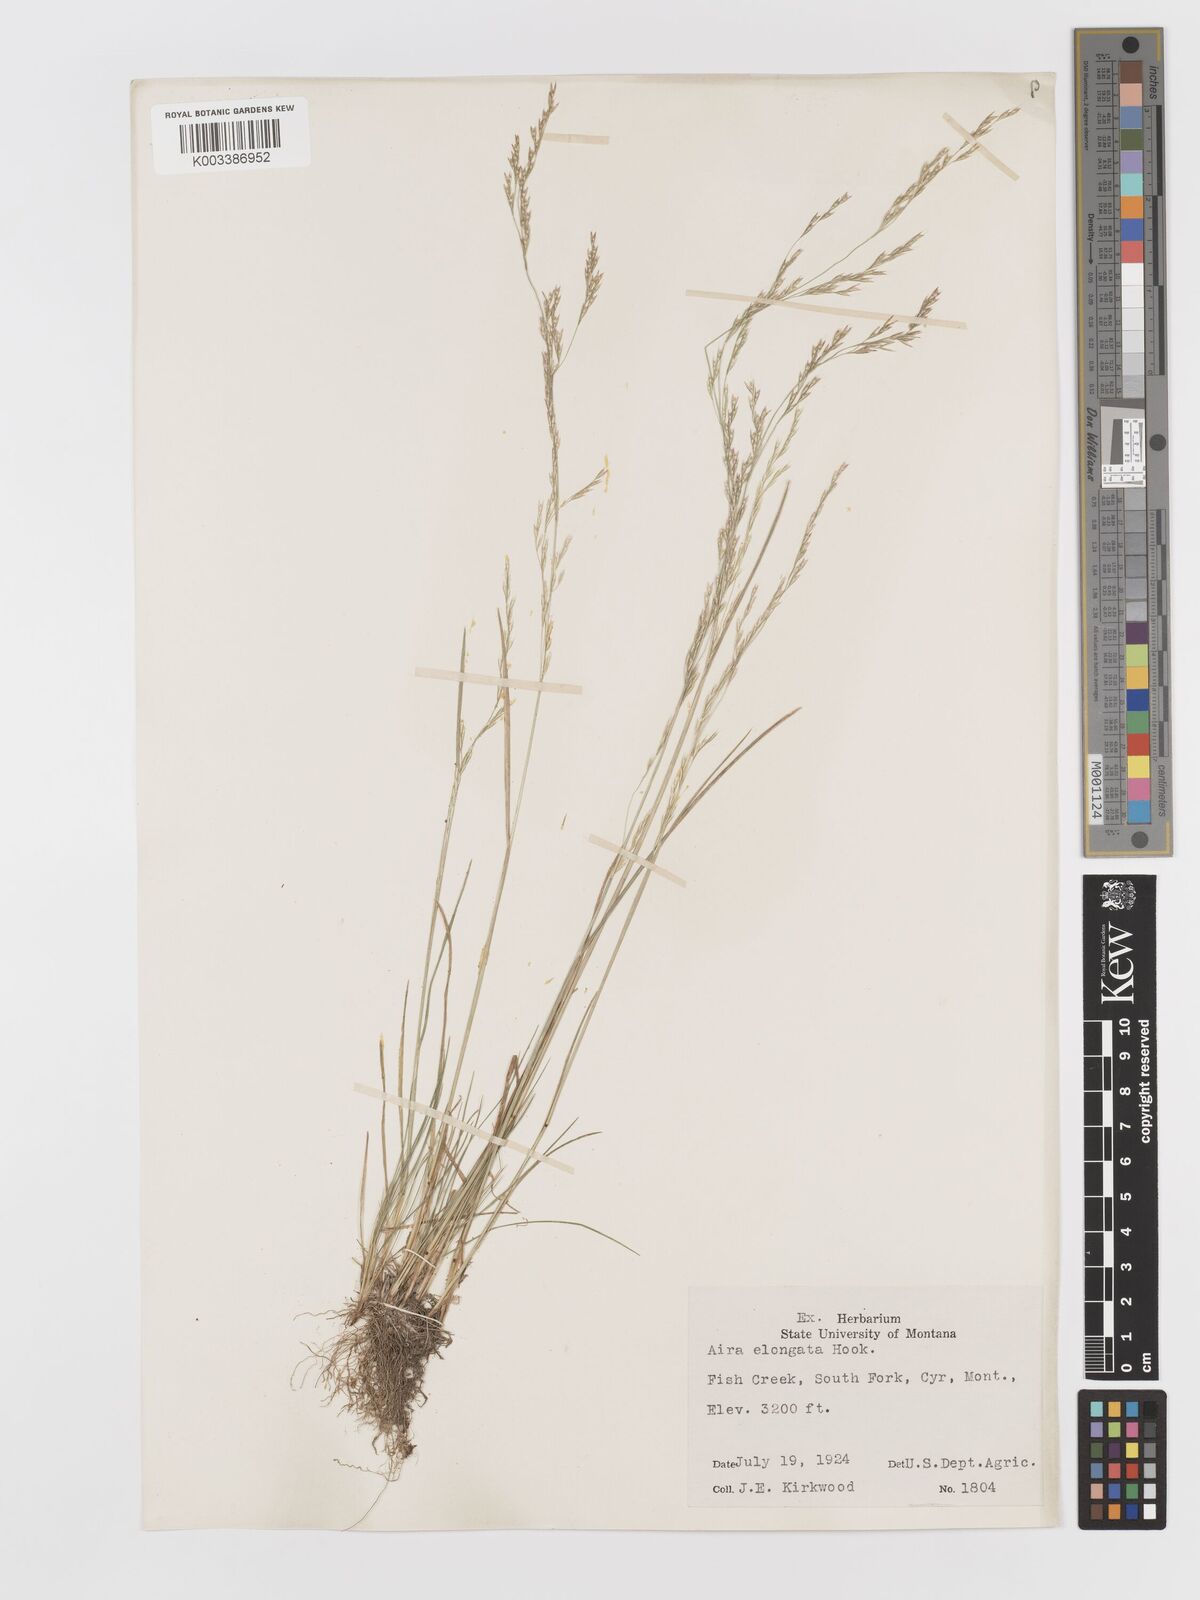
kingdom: Plantae
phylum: Tracheophyta
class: Liliopsida
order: Poales
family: Poaceae
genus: Deschampsia
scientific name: Deschampsia elongata
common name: Slender hairgrass
